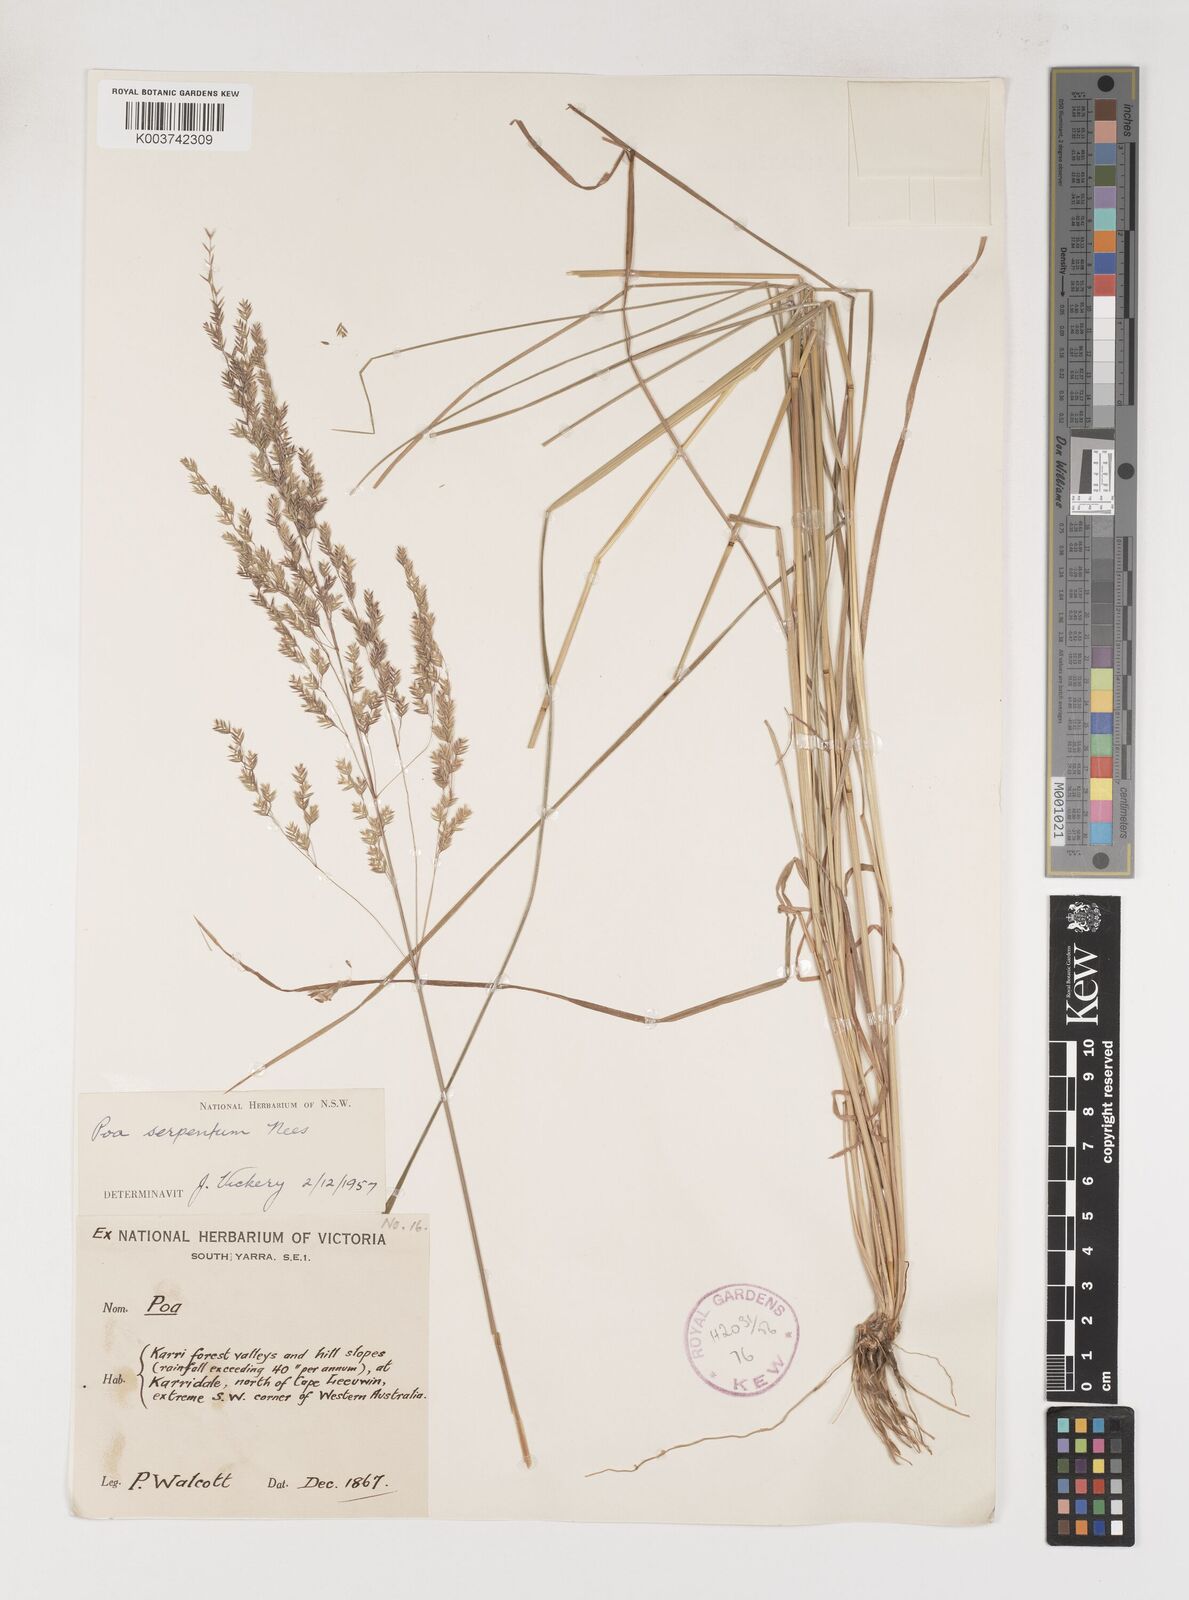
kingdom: Plantae
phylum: Tracheophyta
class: Liliopsida
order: Poales
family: Poaceae
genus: Poa
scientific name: Poa porphyroclados
